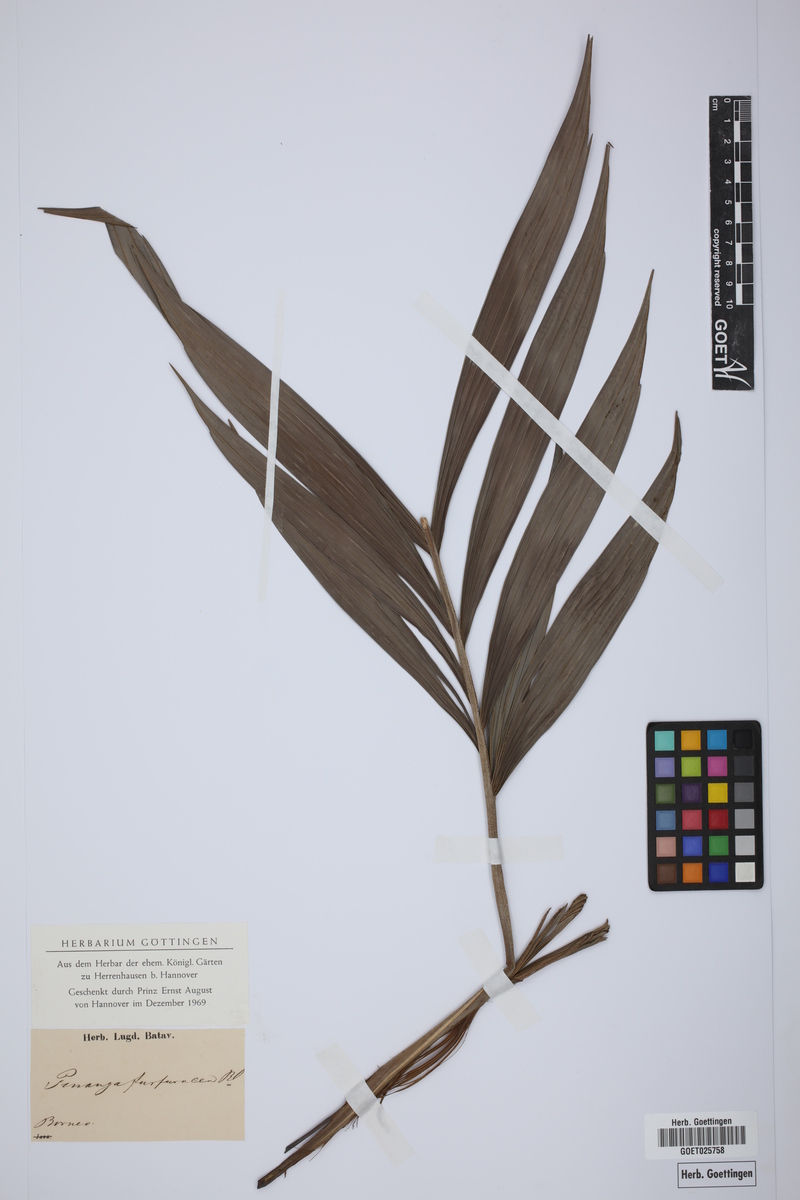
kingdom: Plantae
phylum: Tracheophyta
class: Liliopsida
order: Arecales
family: Arecaceae
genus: Pinanga
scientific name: Pinanga furfuracea
